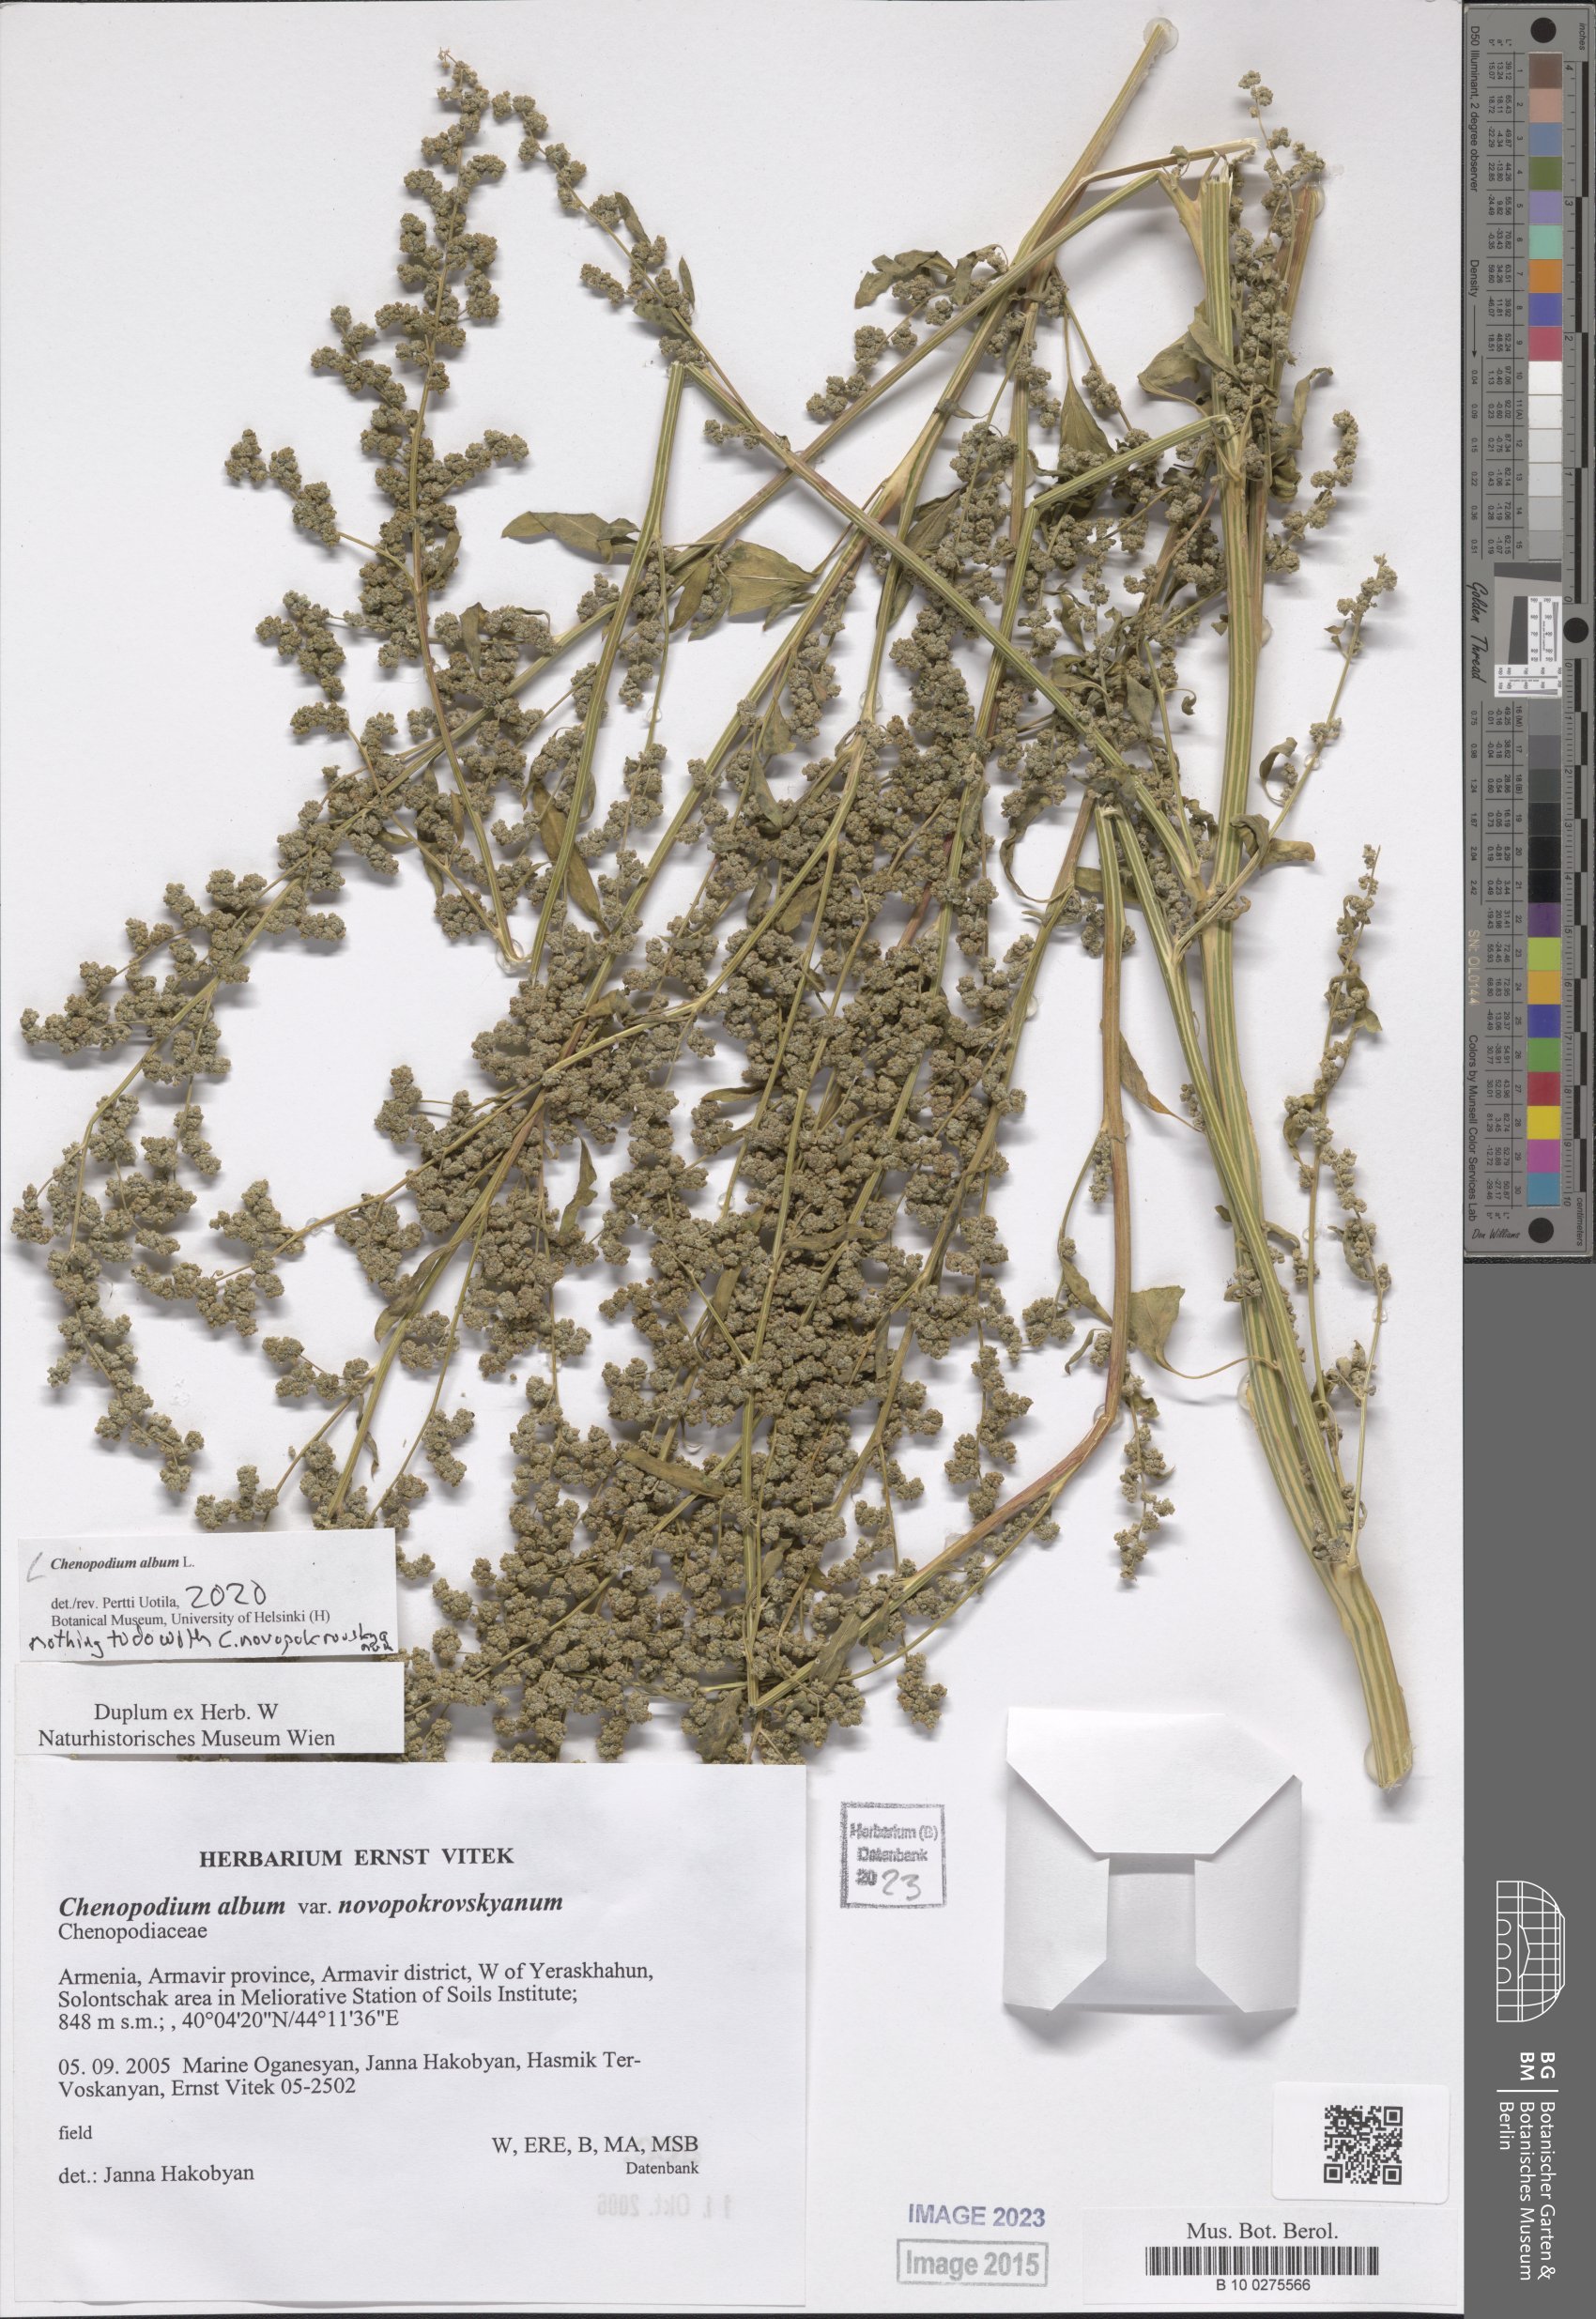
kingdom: Plantae
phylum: Tracheophyta
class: Magnoliopsida
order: Caryophyllales
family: Amaranthaceae
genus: Chenopodium
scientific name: Chenopodium album
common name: Fat-hen
